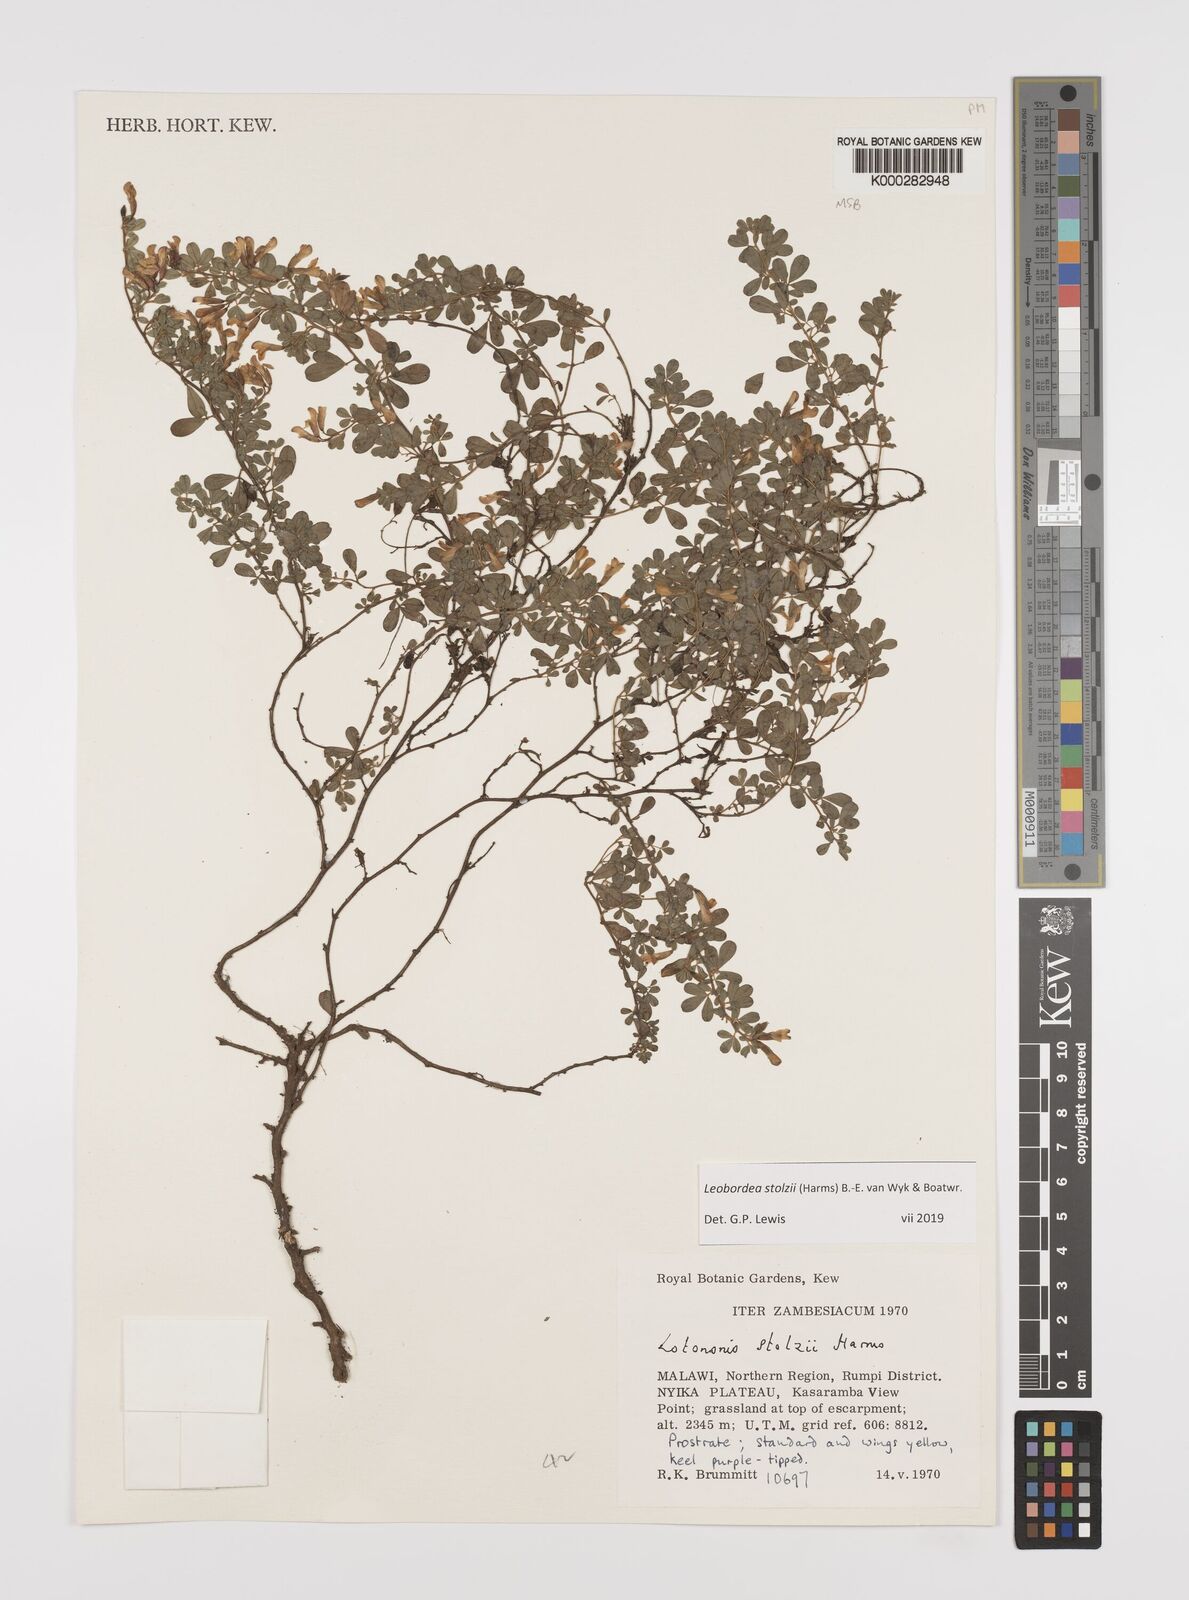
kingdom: Plantae
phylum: Tracheophyta
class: Magnoliopsida
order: Fabales
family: Fabaceae
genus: Leobordea
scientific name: Leobordea stolzii
